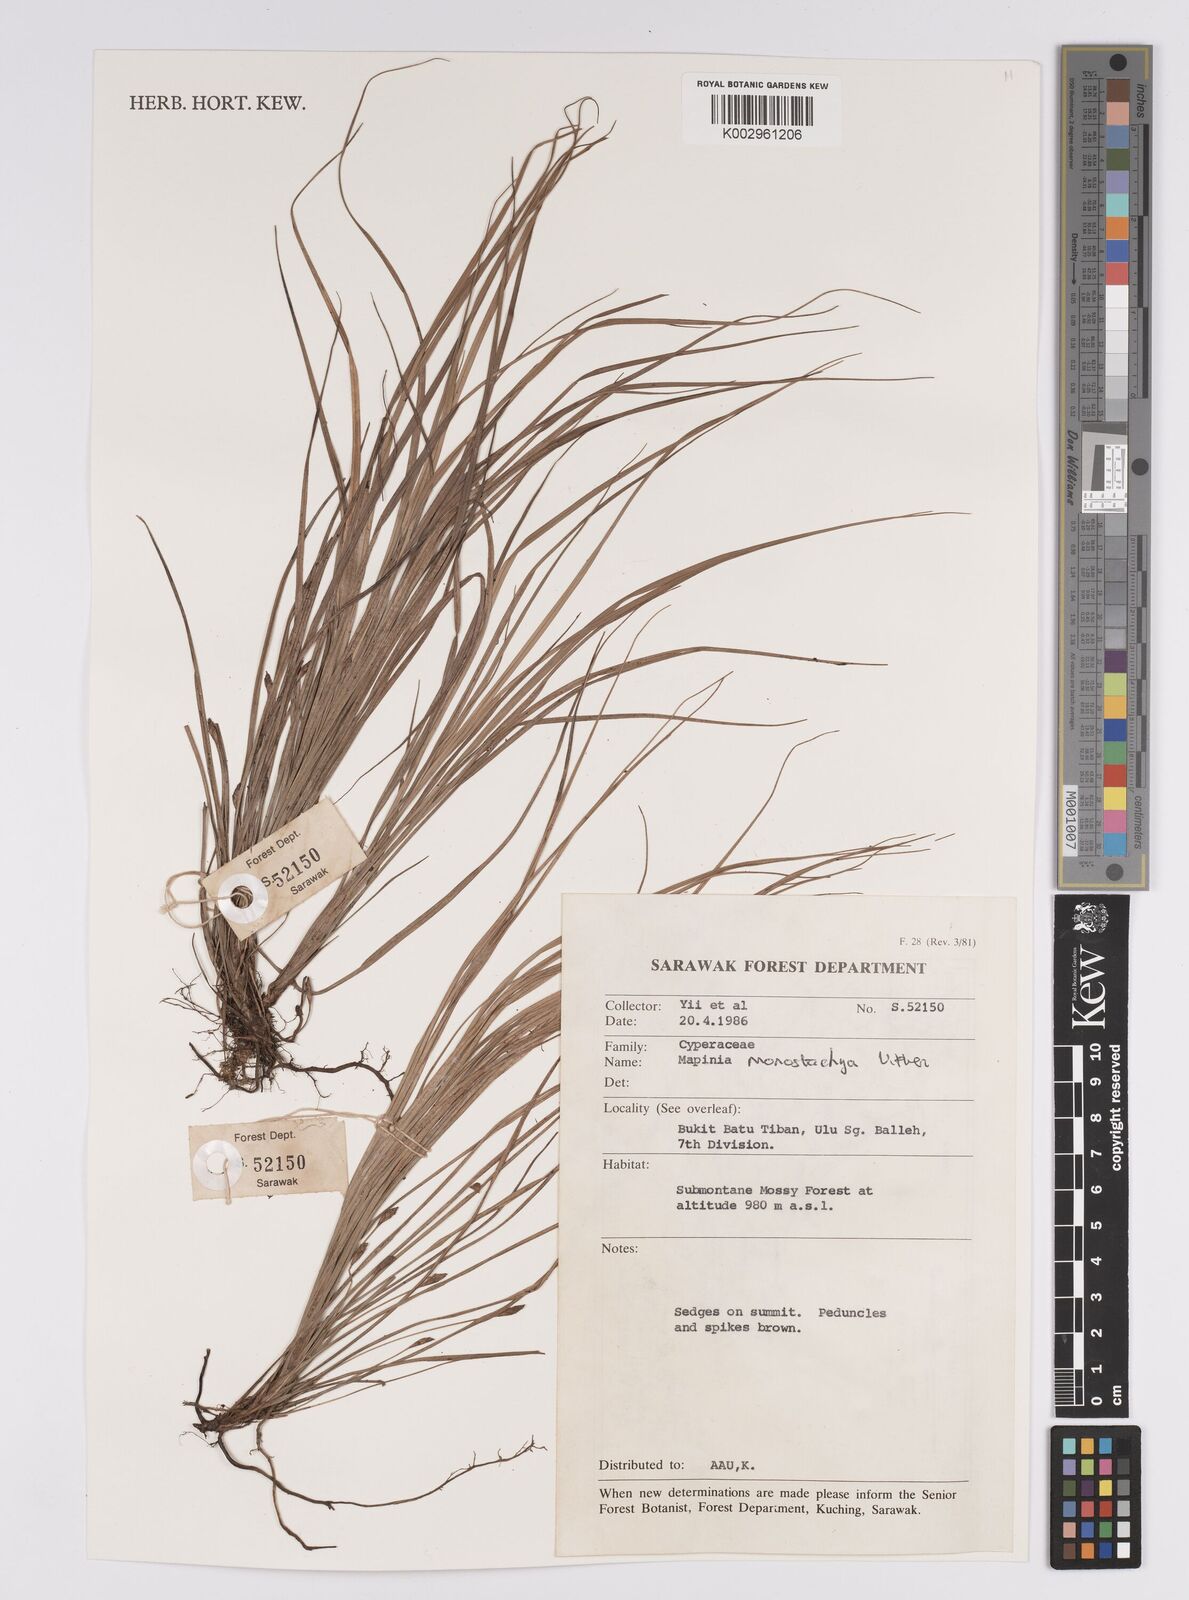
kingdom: Plantae
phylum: Tracheophyta
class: Liliopsida
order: Poales
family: Cyperaceae
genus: Mapania
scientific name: Mapania monostachya
